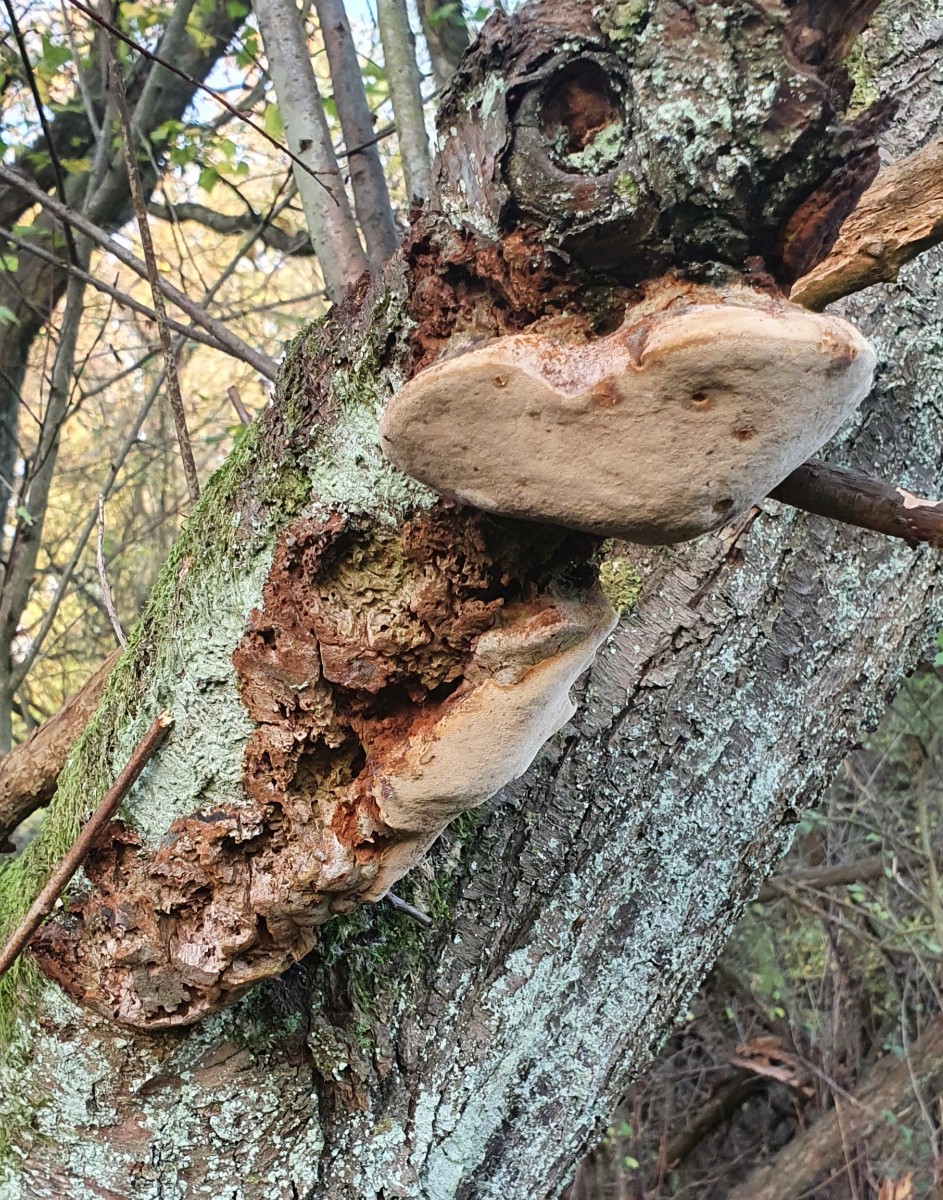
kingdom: Fungi
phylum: Basidiomycota
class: Agaricomycetes
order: Hymenochaetales
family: Hymenochaetaceae
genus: Phellinus
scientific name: Phellinus pomaceus
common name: blomme-ildporesvamp
